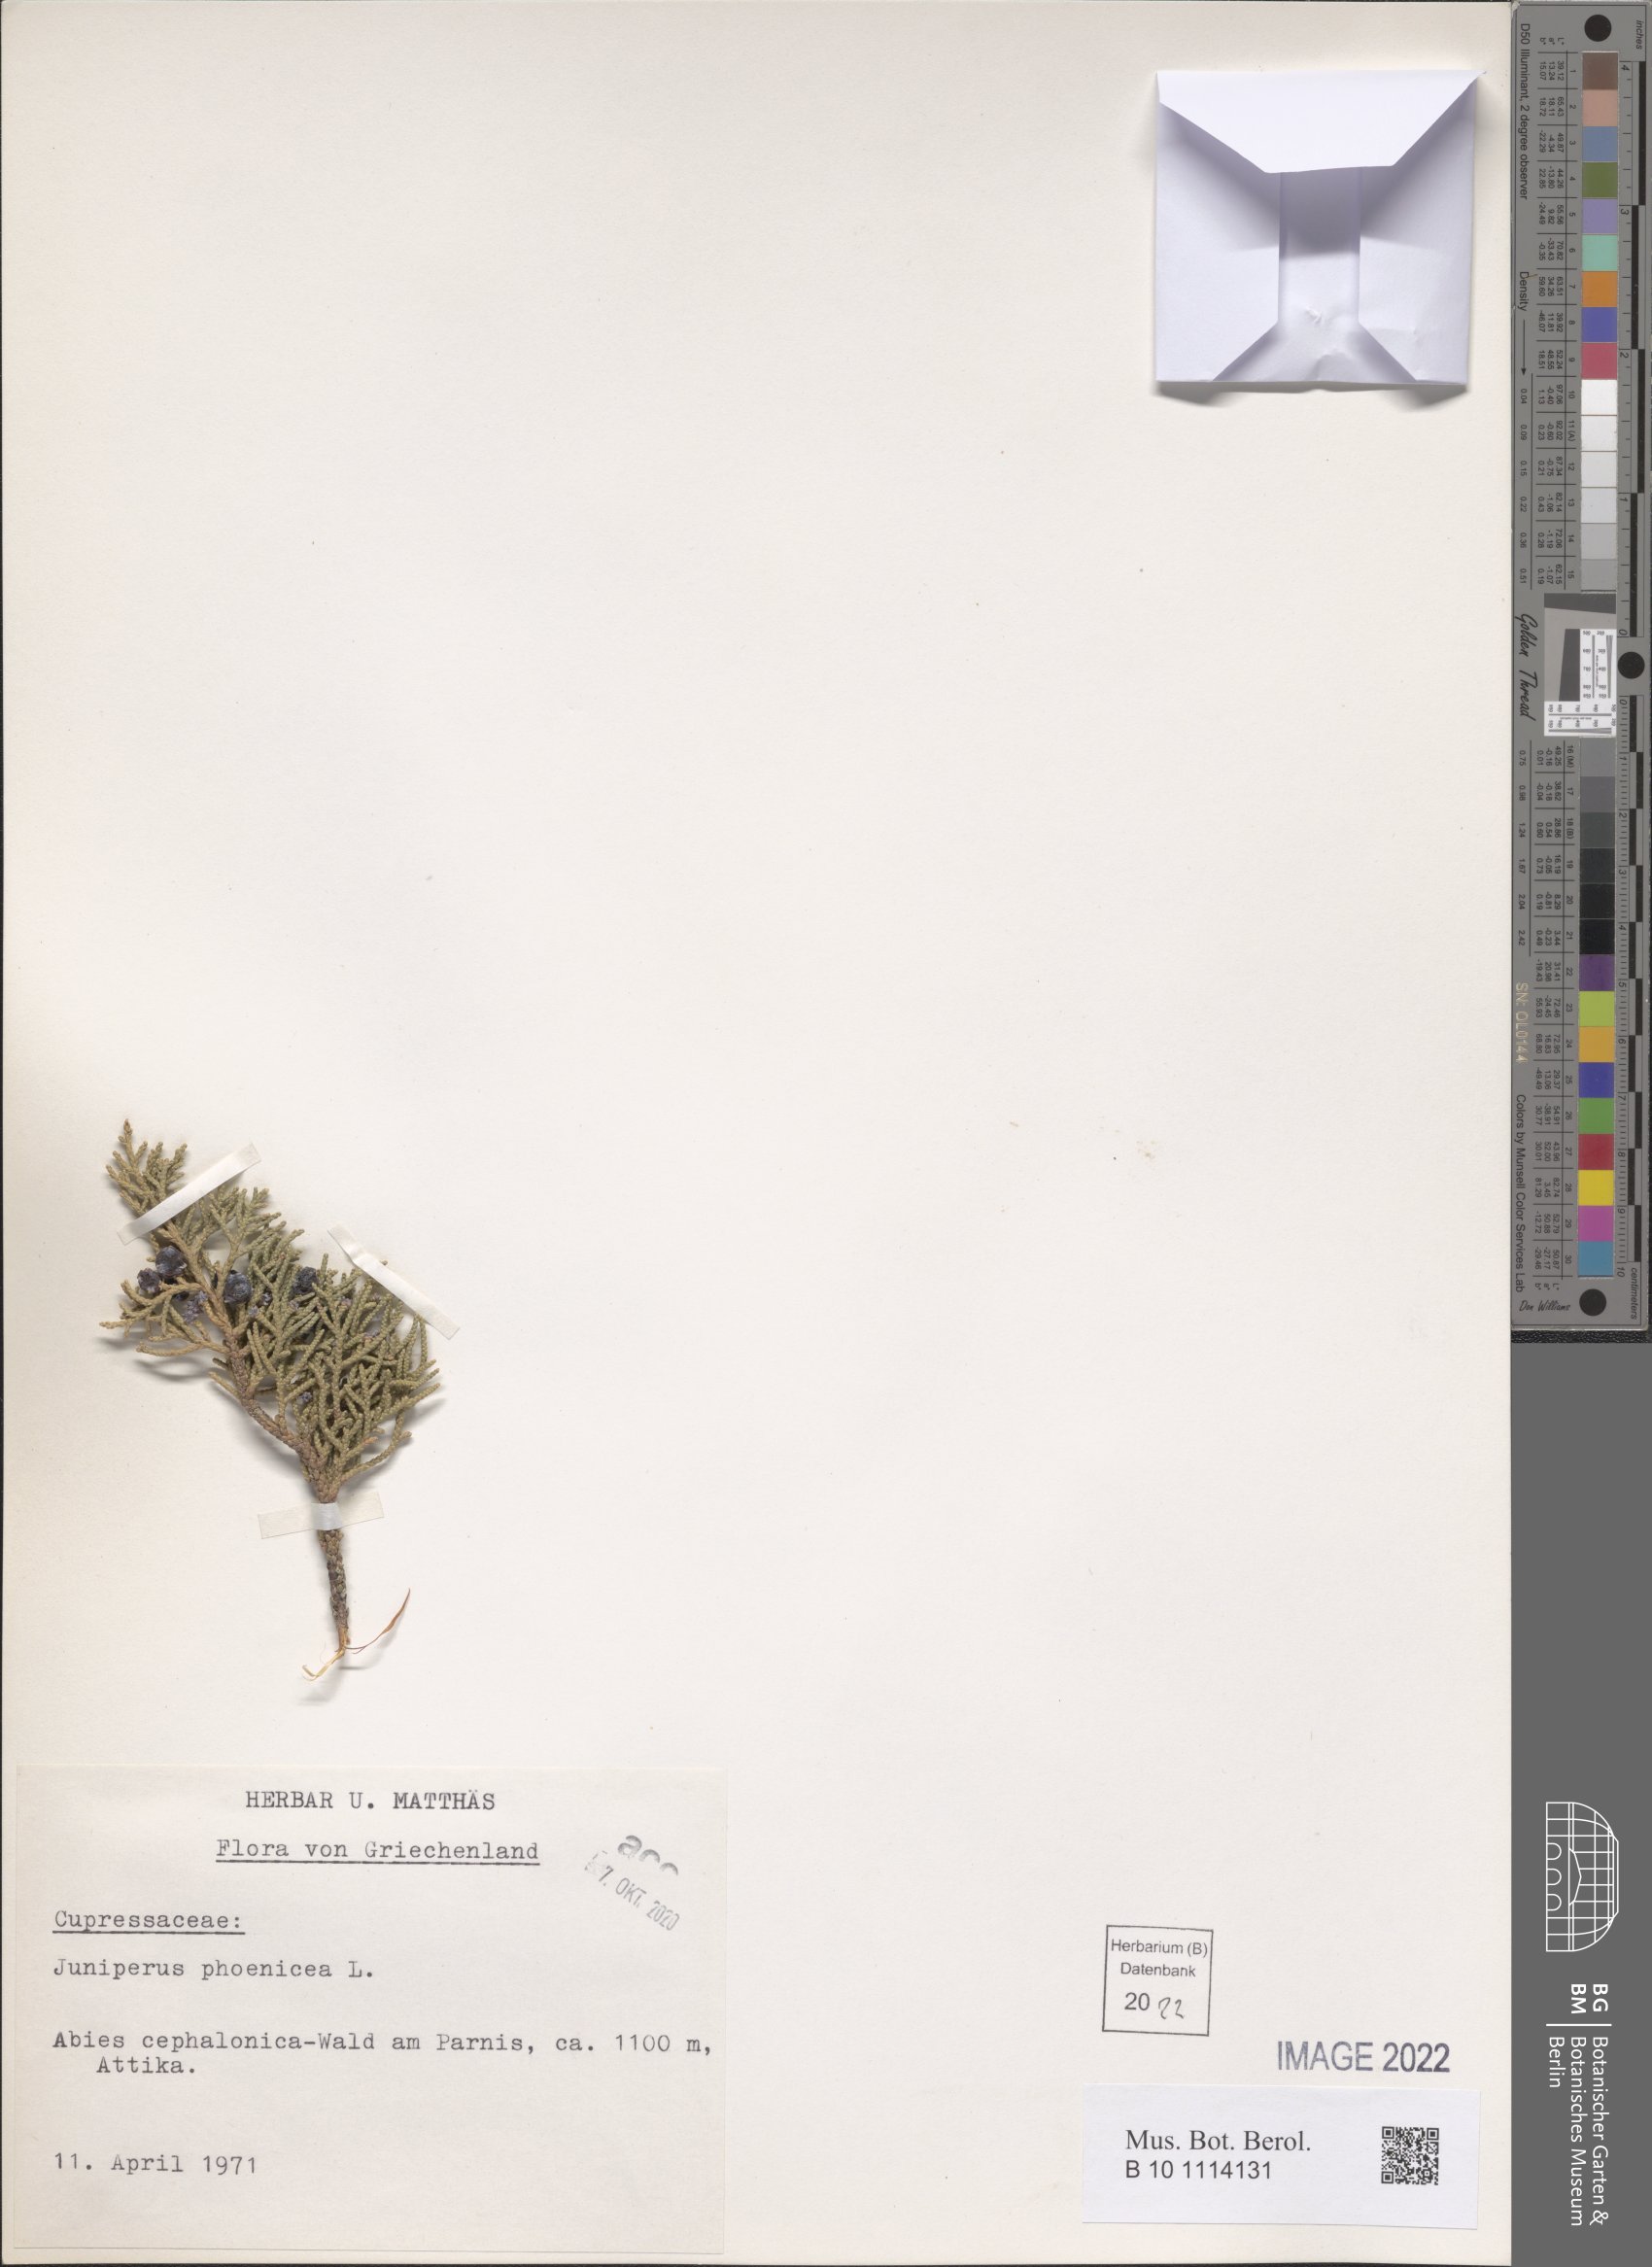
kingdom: Plantae
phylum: Tracheophyta
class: Pinopsida
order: Pinales
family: Cupressaceae
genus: Juniperus
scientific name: Juniperus phoenicea
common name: Phoenician juniper
